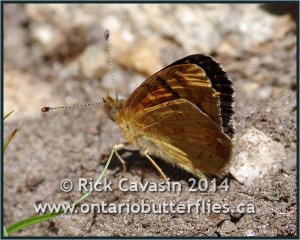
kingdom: Animalia
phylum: Arthropoda
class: Insecta
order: Lepidoptera
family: Nymphalidae
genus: Phyciodes
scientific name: Phyciodes tharos
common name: Field Crescent
